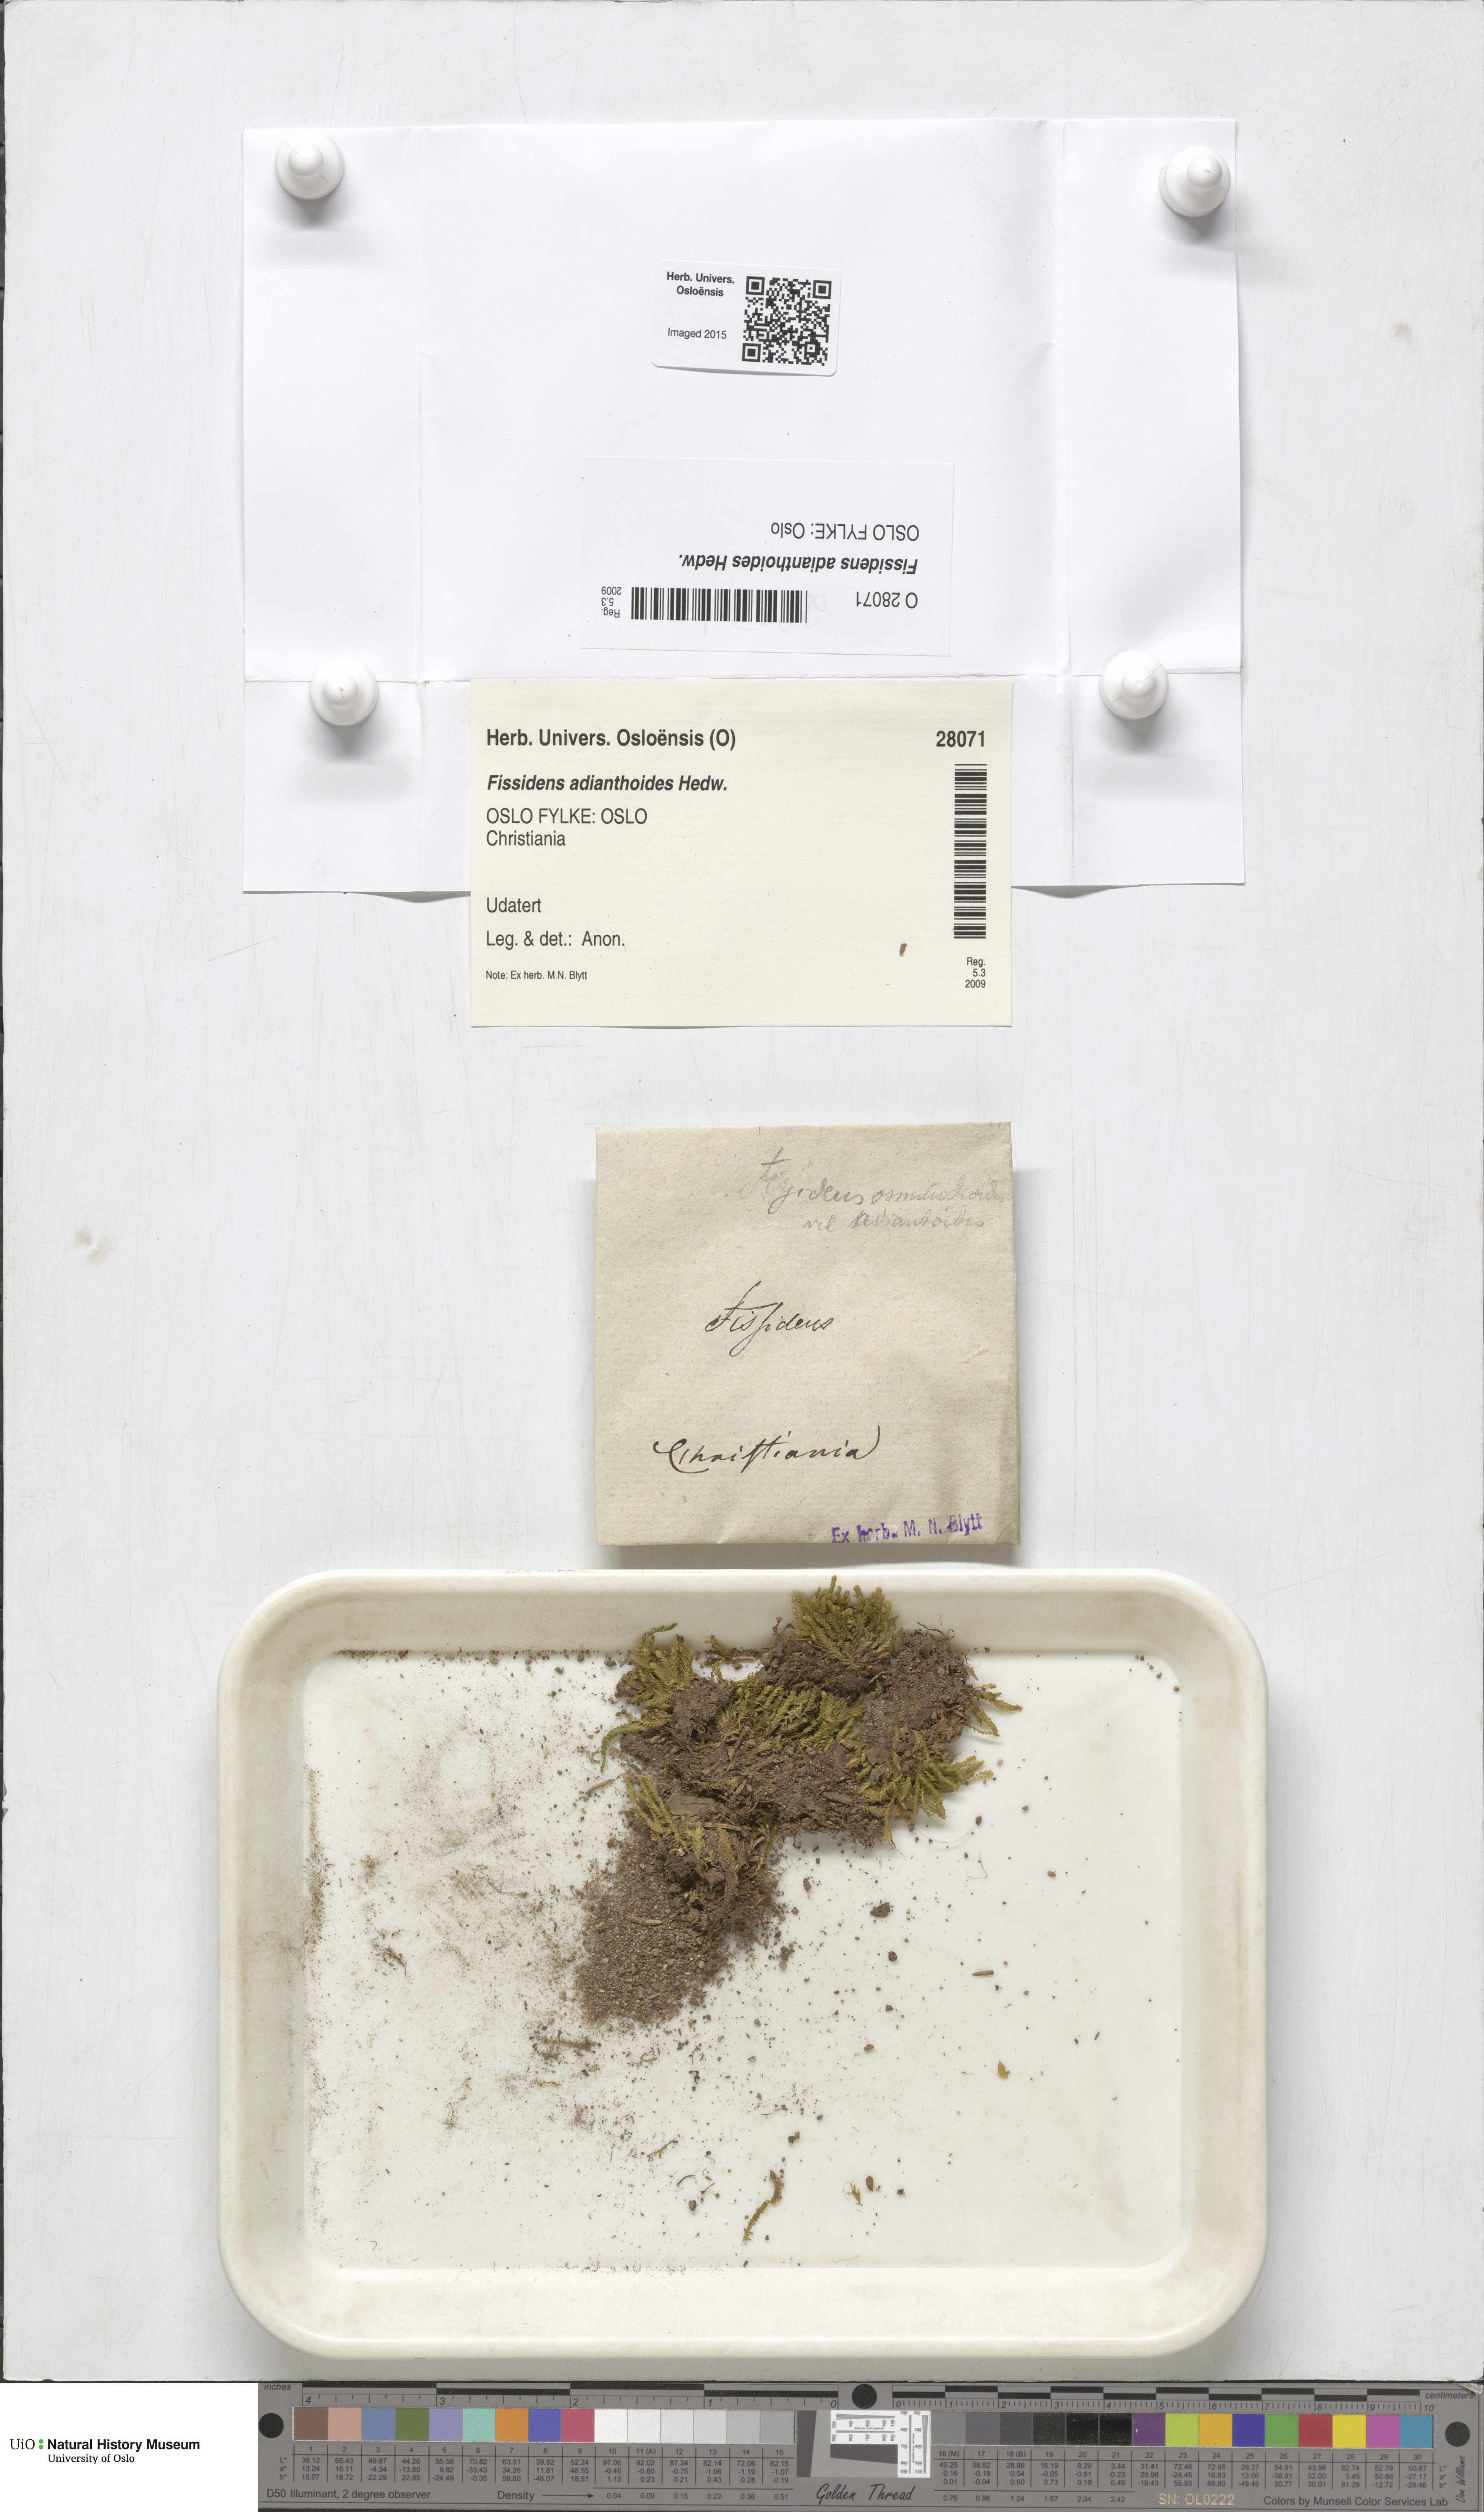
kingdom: Plantae
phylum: Bryophyta
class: Bryopsida
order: Dicranales
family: Fissidentaceae
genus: Fissidens
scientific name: Fissidens adianthoides
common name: Maidenhair pocket moss
